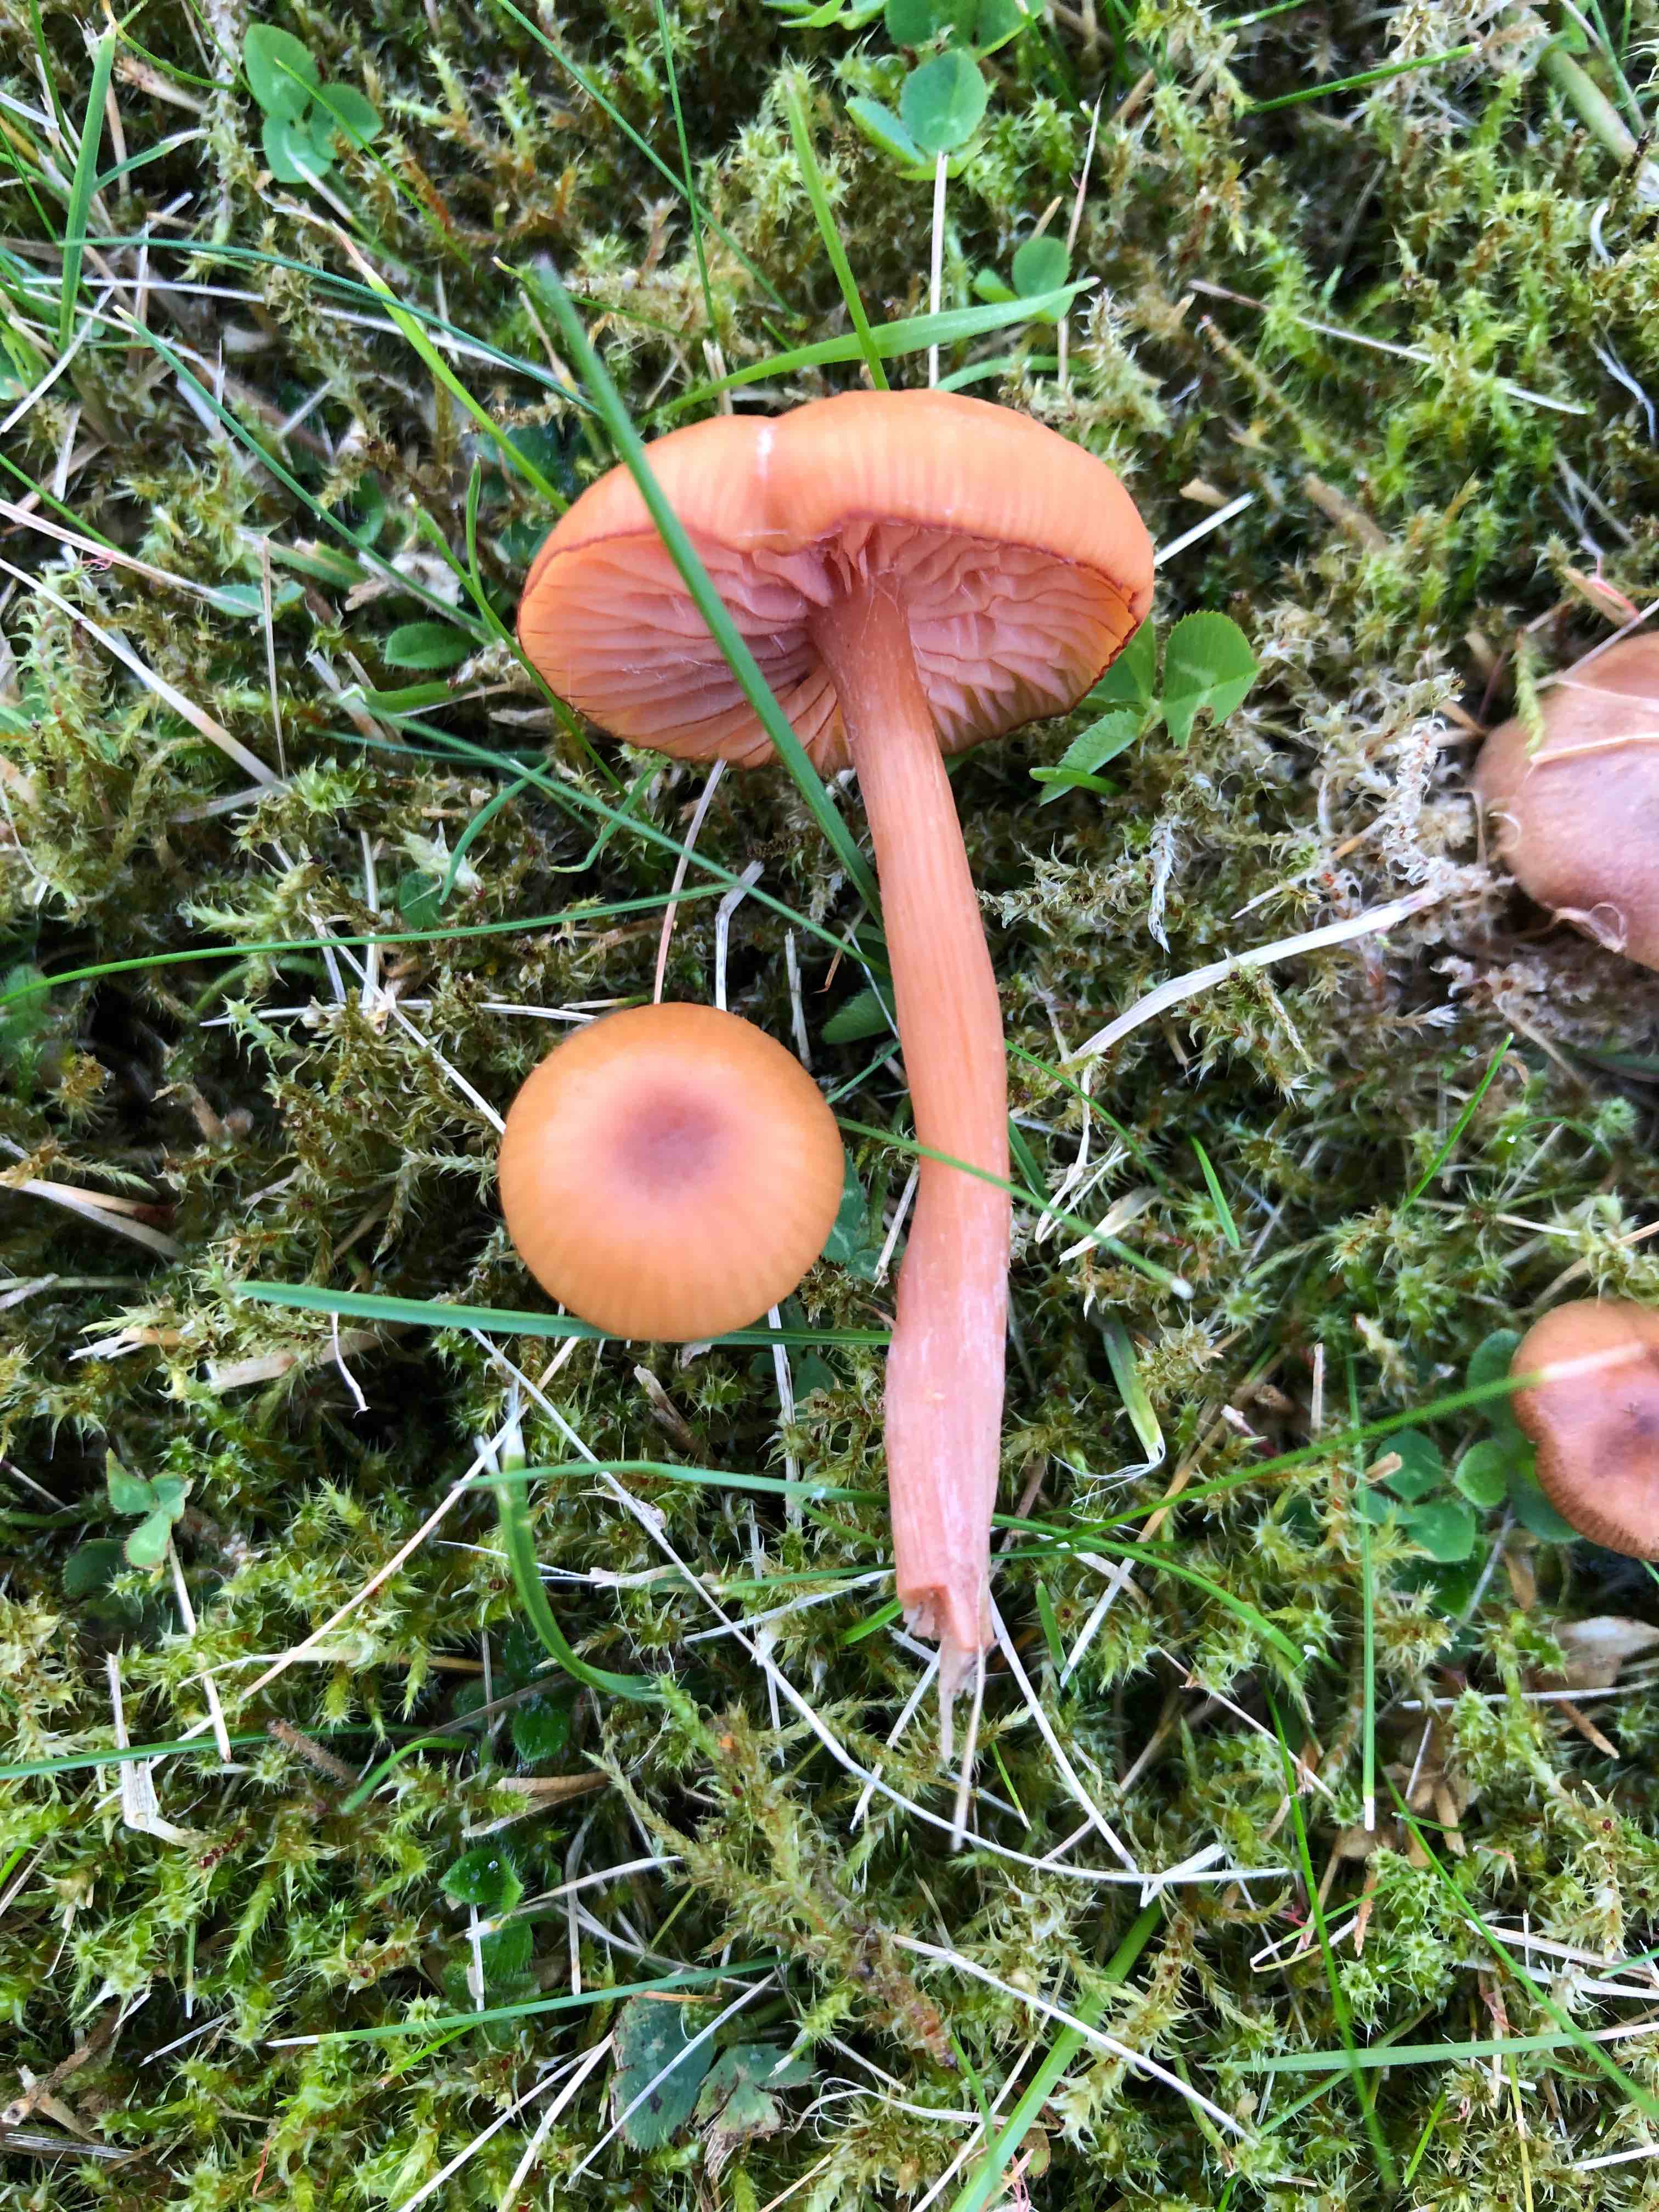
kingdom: Fungi
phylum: Basidiomycota
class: Agaricomycetes
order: Agaricales
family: Hydnangiaceae
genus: Laccaria
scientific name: Laccaria laccata
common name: rød ametysthat
